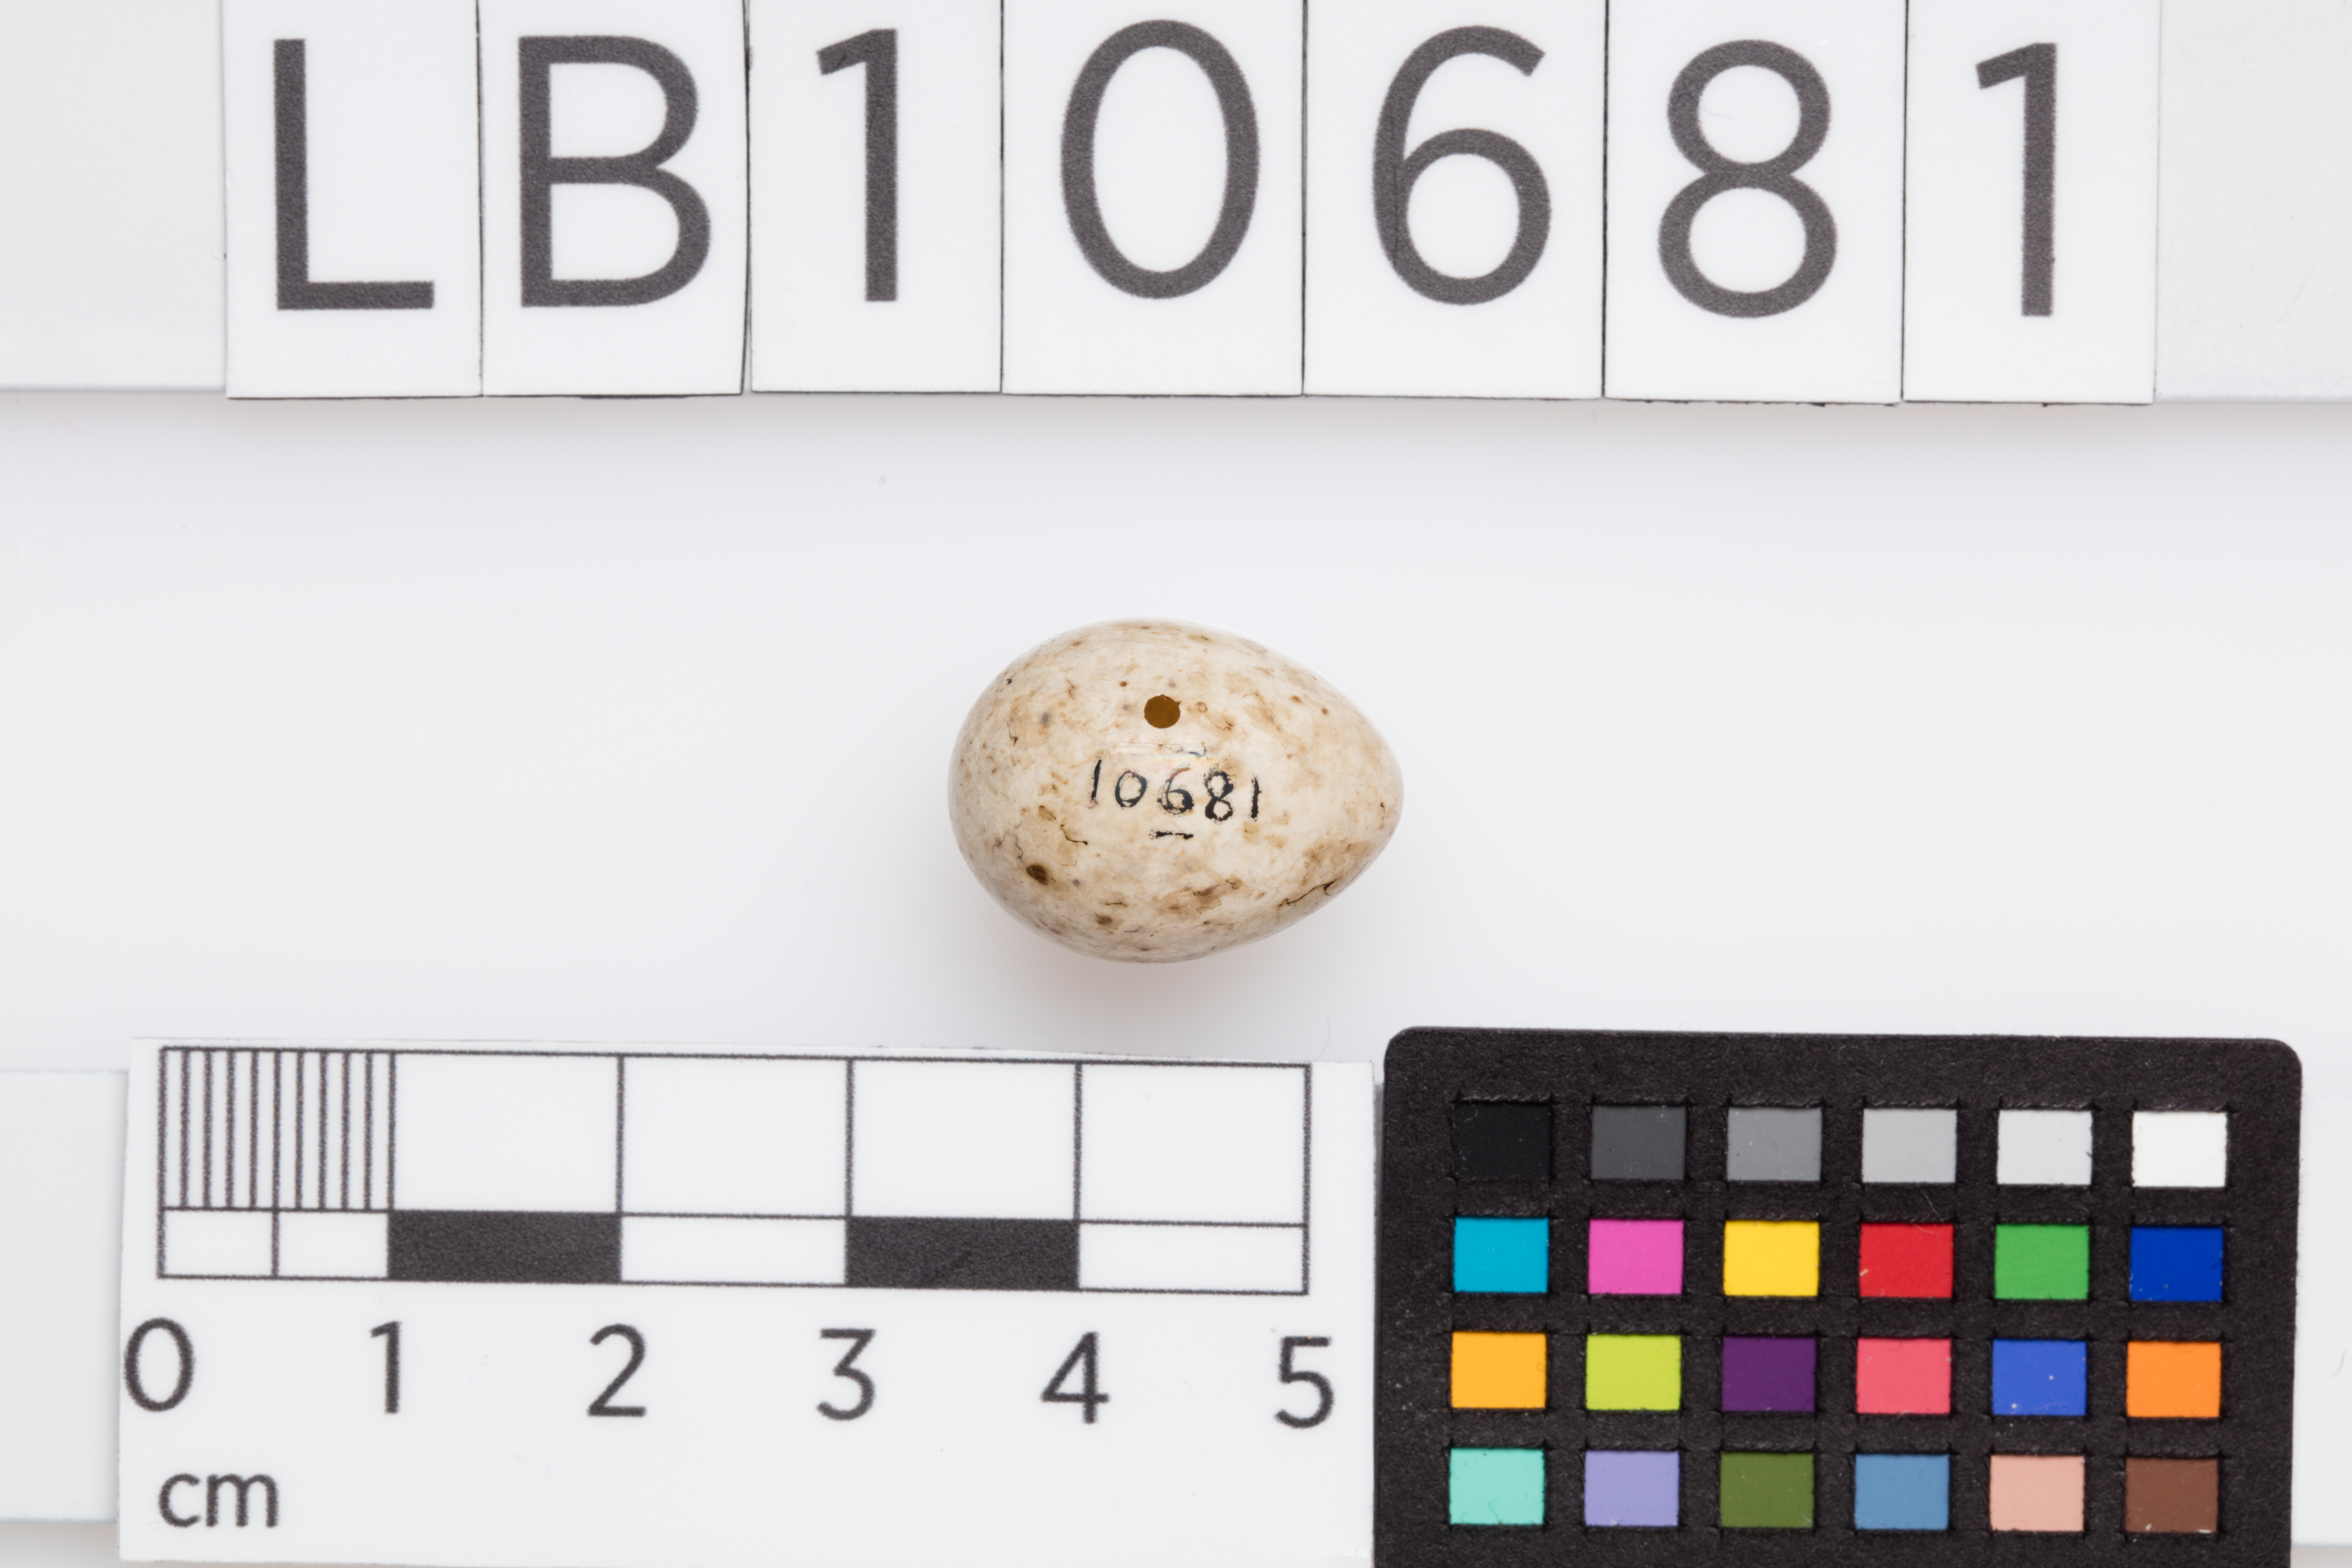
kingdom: Animalia
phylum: Chordata
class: Aves
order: Passeriformes
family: Sylviidae
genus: Sylvia
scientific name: Sylvia atricapilla
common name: Eurasian blackcap
